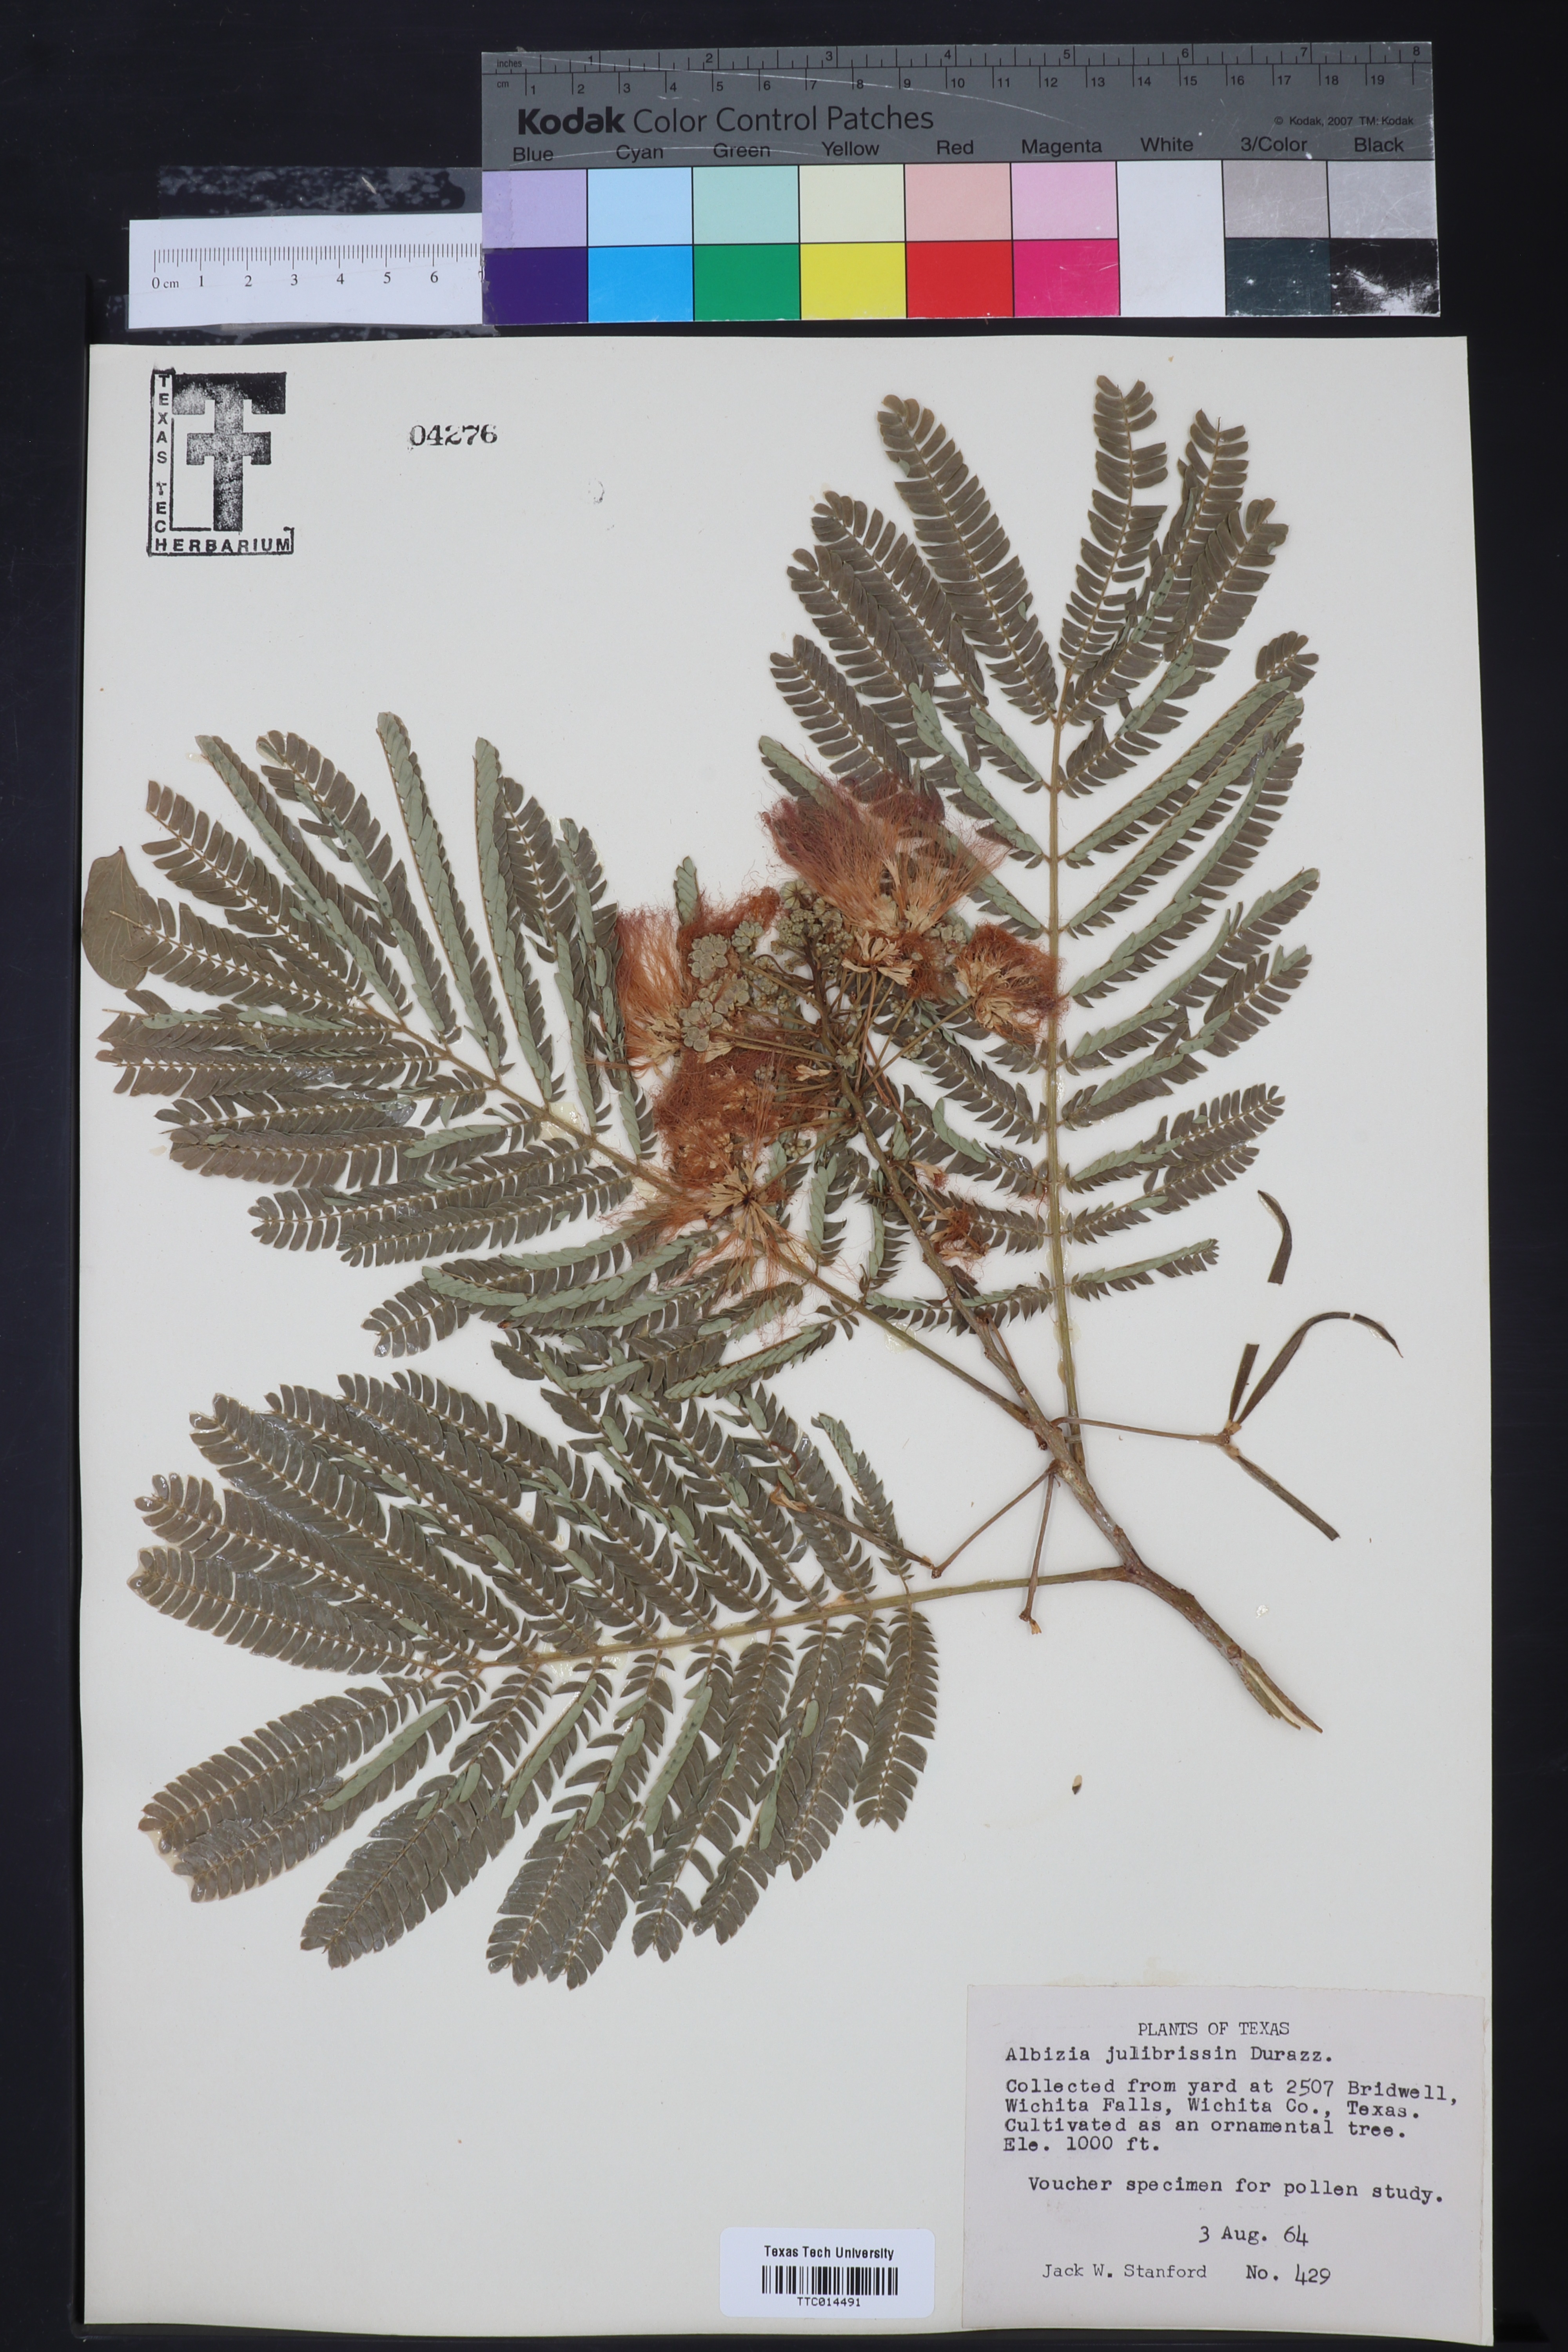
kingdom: Plantae
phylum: Tracheophyta
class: Magnoliopsida
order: Fabales
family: Fabaceae
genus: Albizia
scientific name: Albizia julibrissin
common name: Silktree
